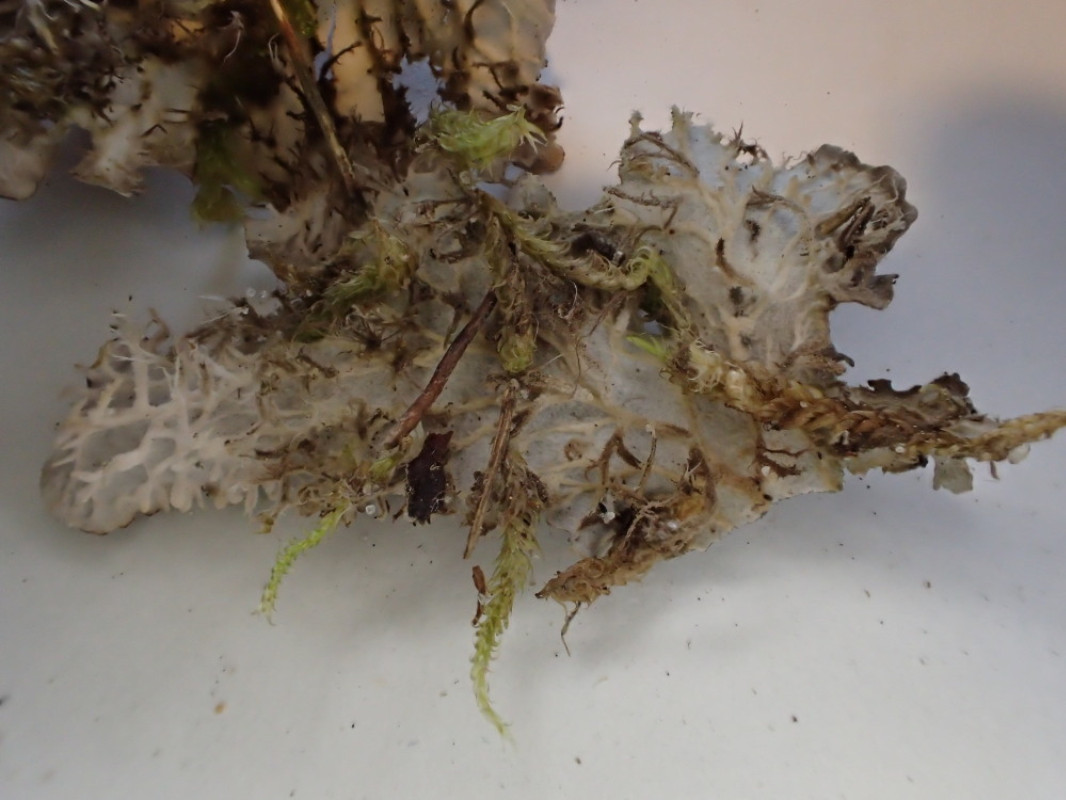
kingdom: Fungi
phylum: Ascomycota
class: Lecanoromycetes
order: Peltigerales
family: Peltigeraceae
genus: Peltigera
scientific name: Peltigera membranacea
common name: tynd skjoldlav
